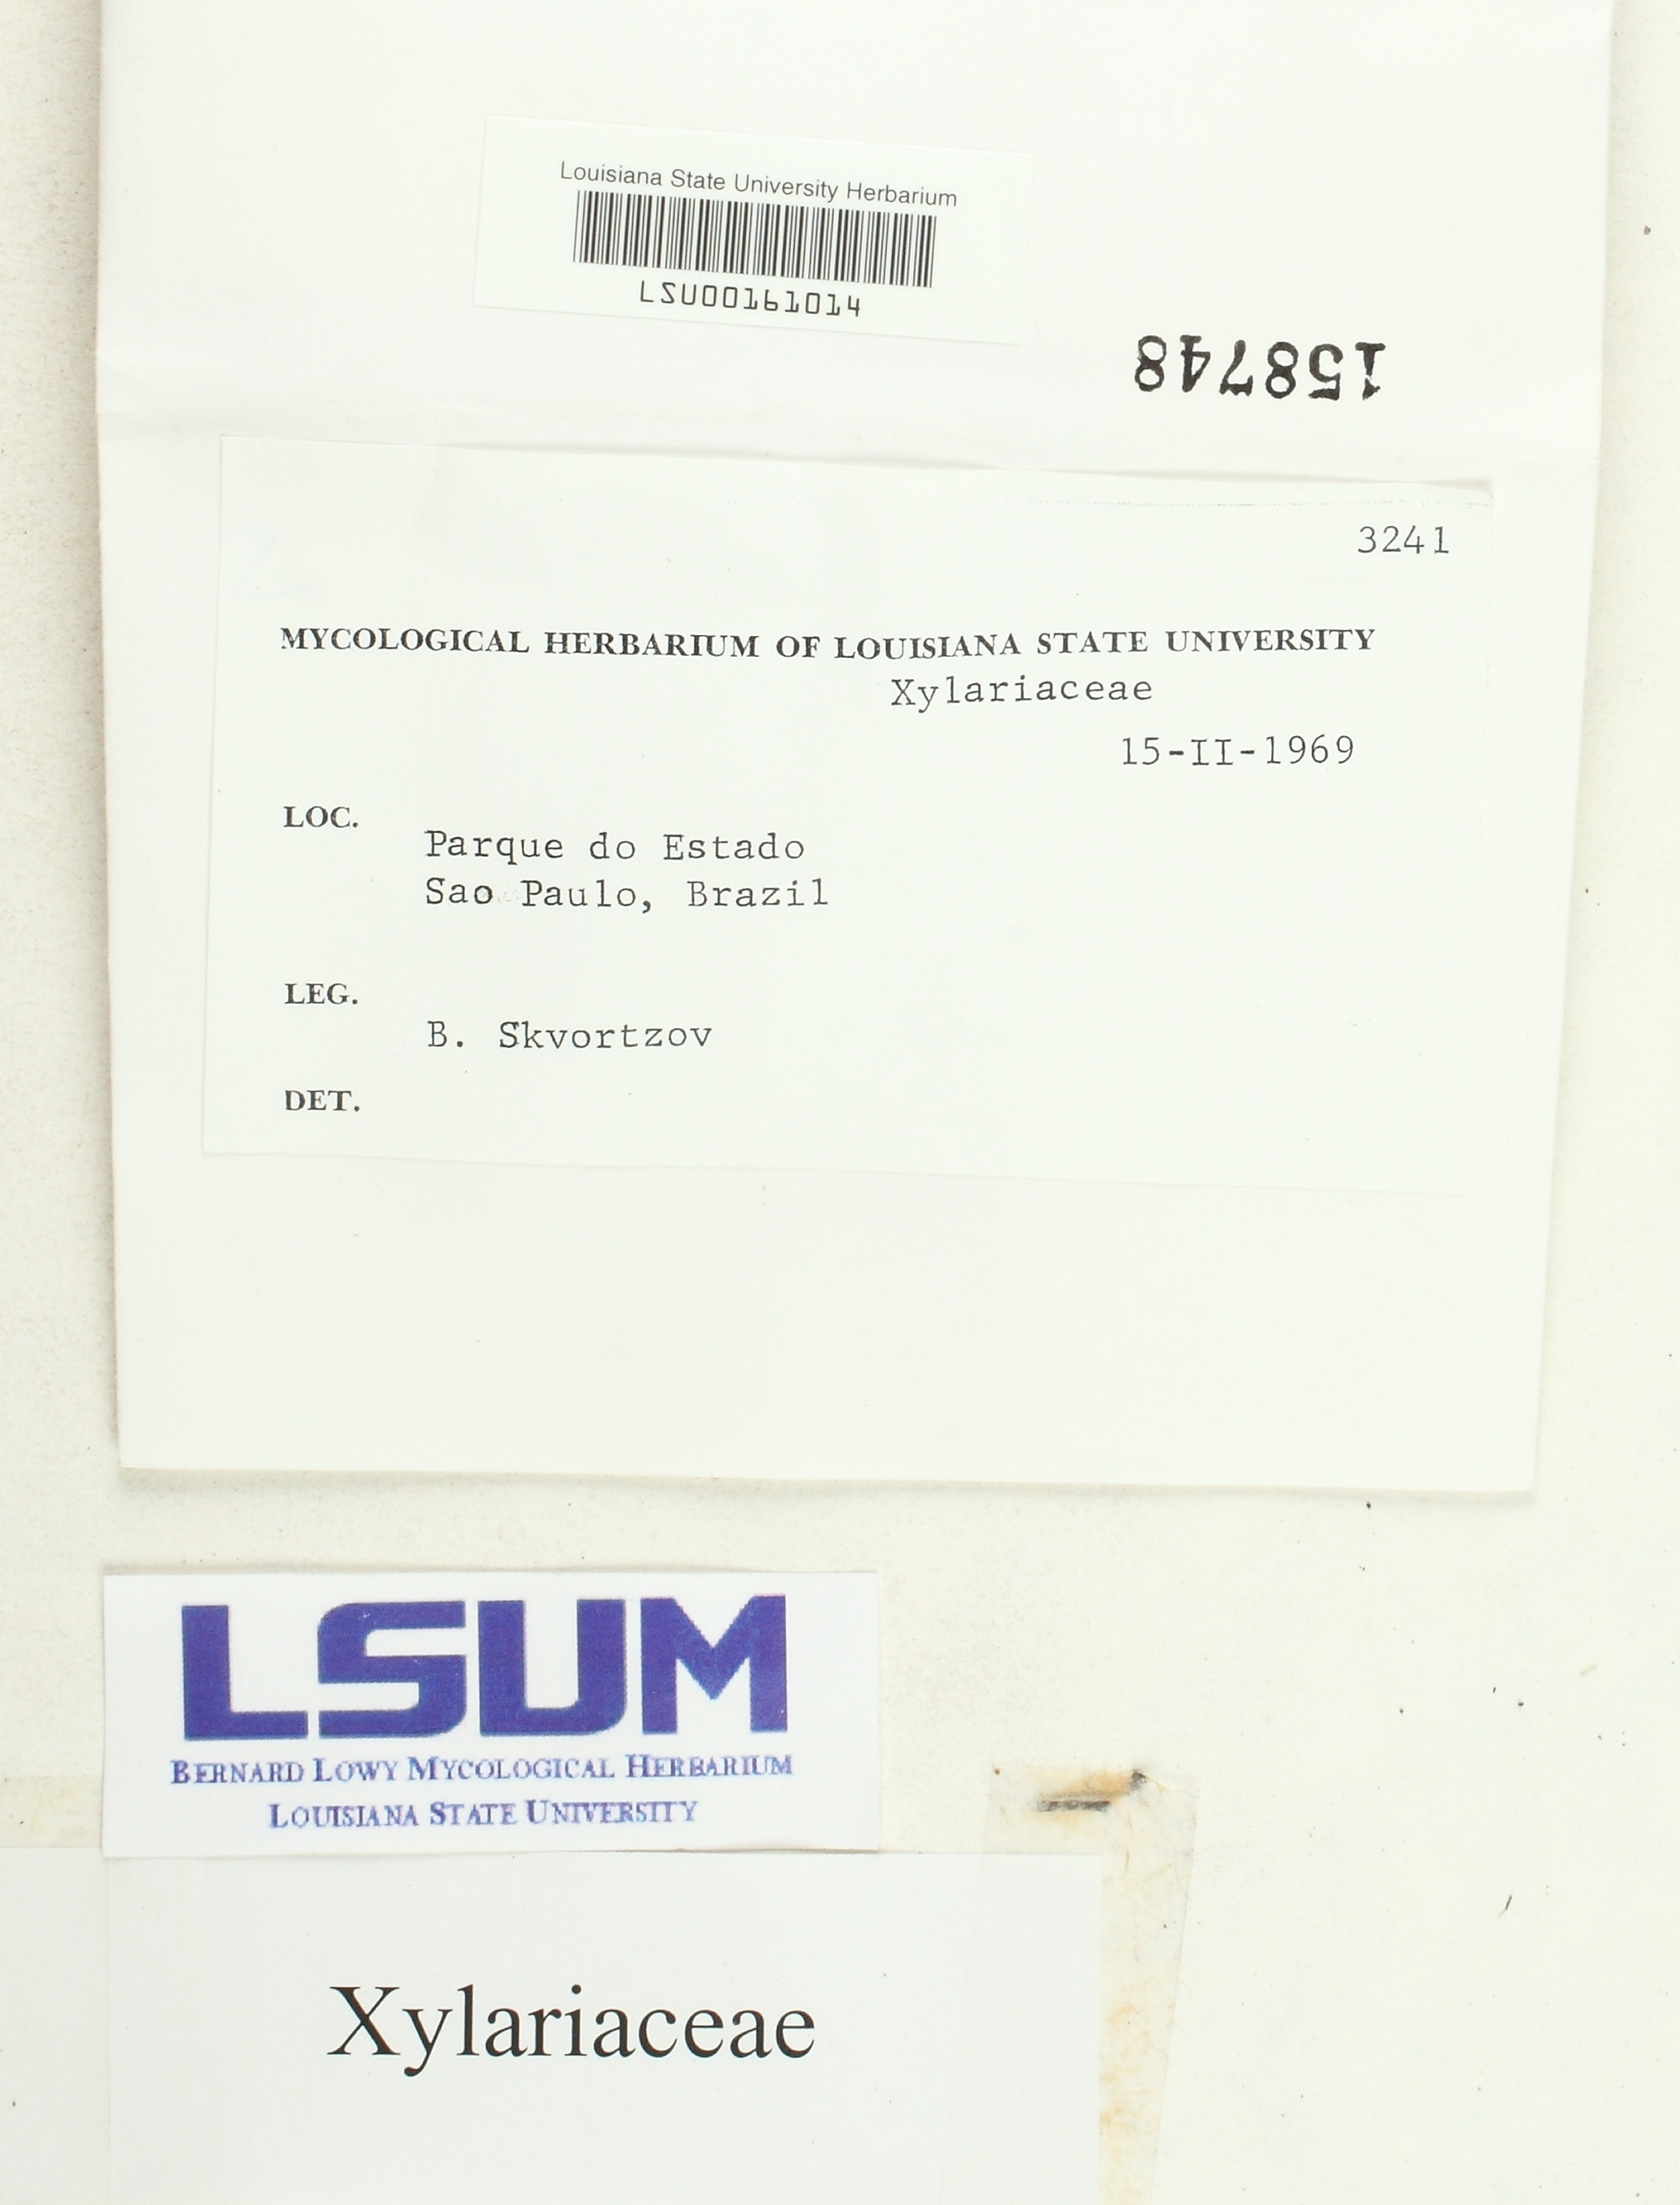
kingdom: Fungi
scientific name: Fungi
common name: Fungi
